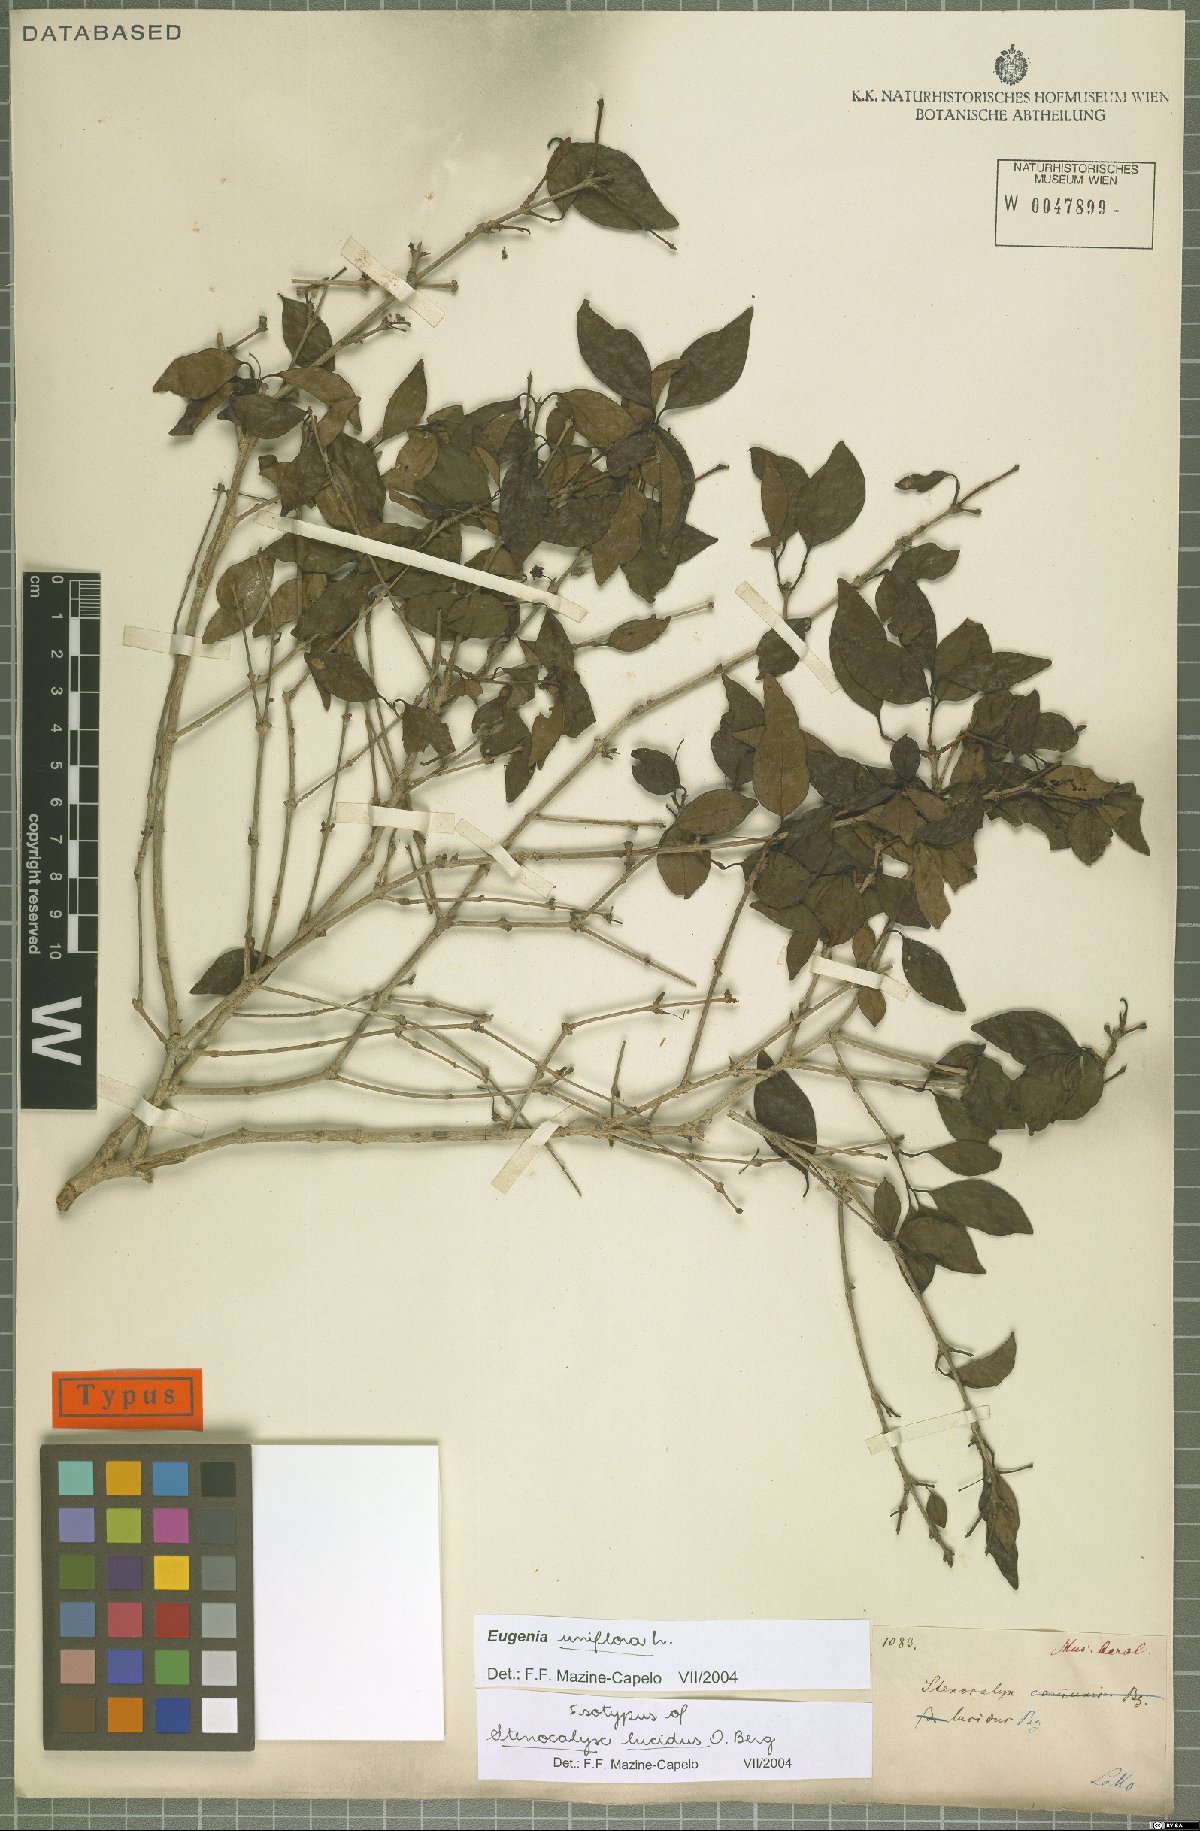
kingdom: Plantae
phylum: Tracheophyta
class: Magnoliopsida
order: Myrtales
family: Myrtaceae
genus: Eugenia
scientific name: Eugenia uniflora
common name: Surinam cherry
